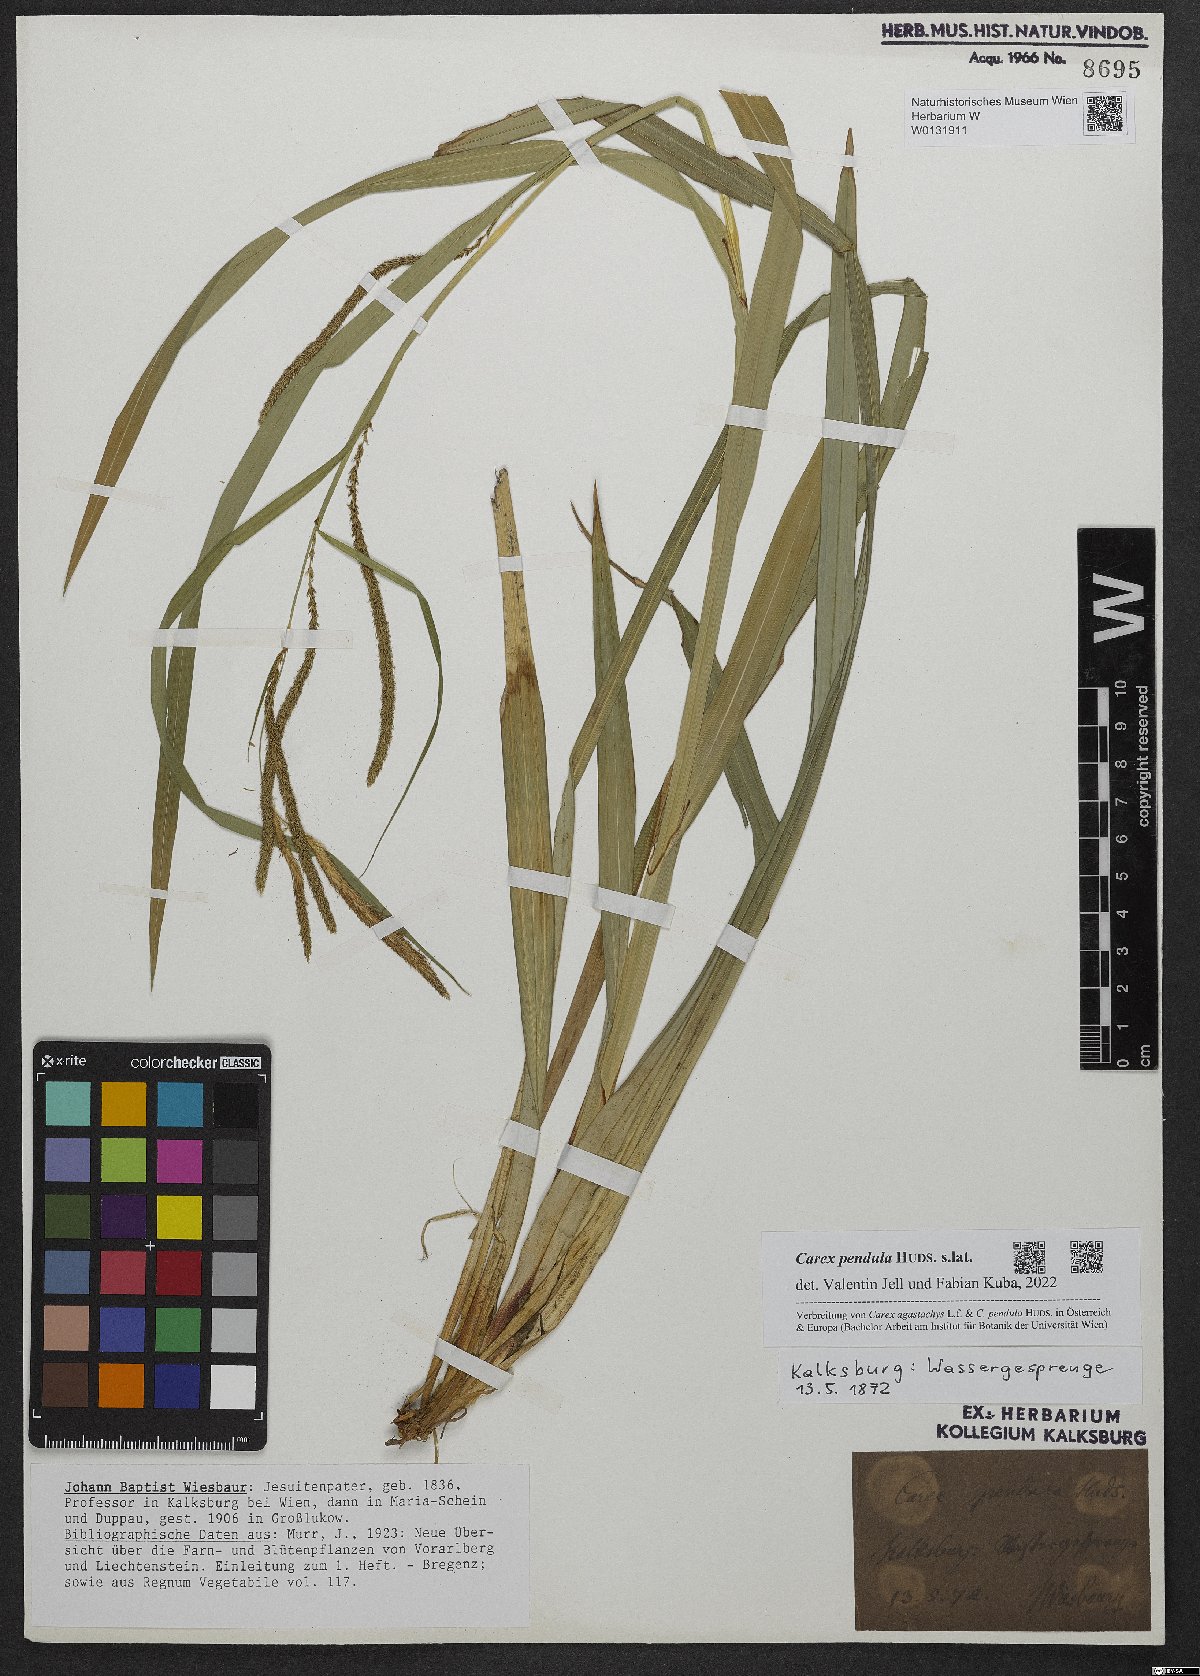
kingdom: Plantae
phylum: Tracheophyta
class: Liliopsida
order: Poales
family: Cyperaceae
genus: Carex
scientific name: Carex pendula
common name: Pendulous sedge
